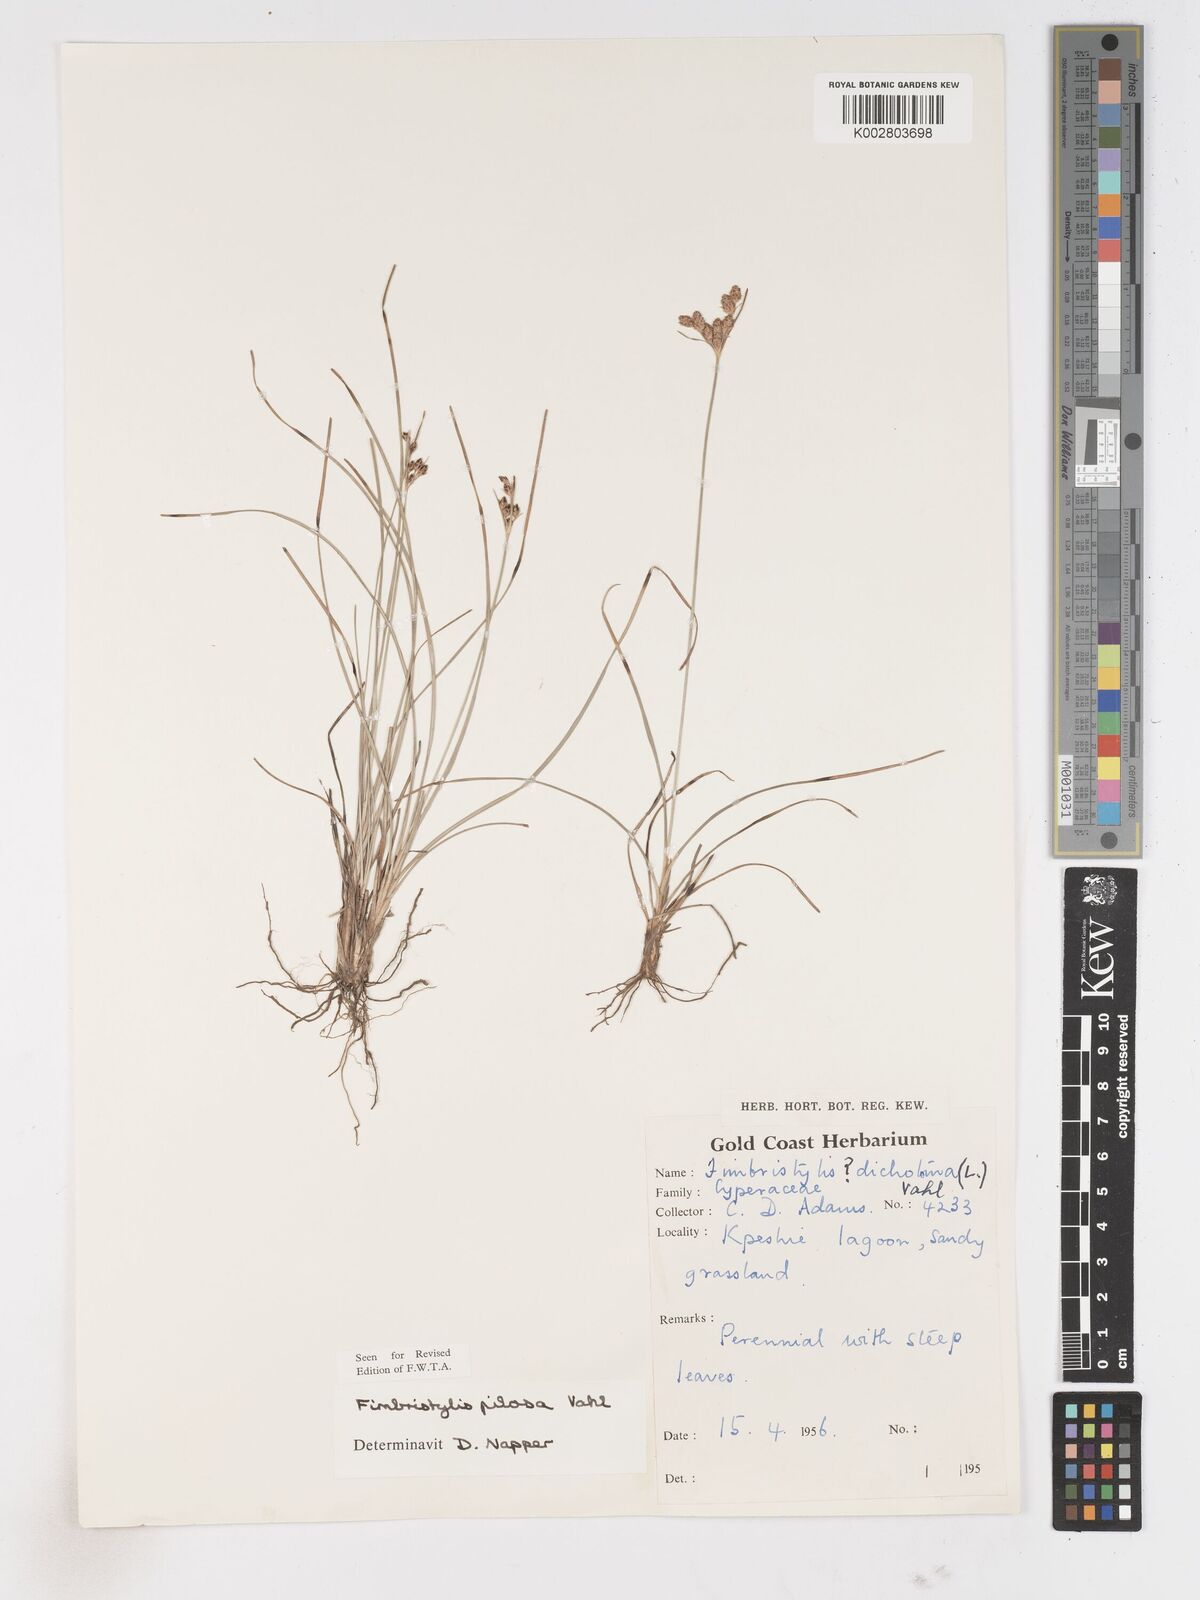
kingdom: Plantae
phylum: Tracheophyta
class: Liliopsida
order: Poales
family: Cyperaceae
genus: Fimbristylis
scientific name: Fimbristylis pilosa
